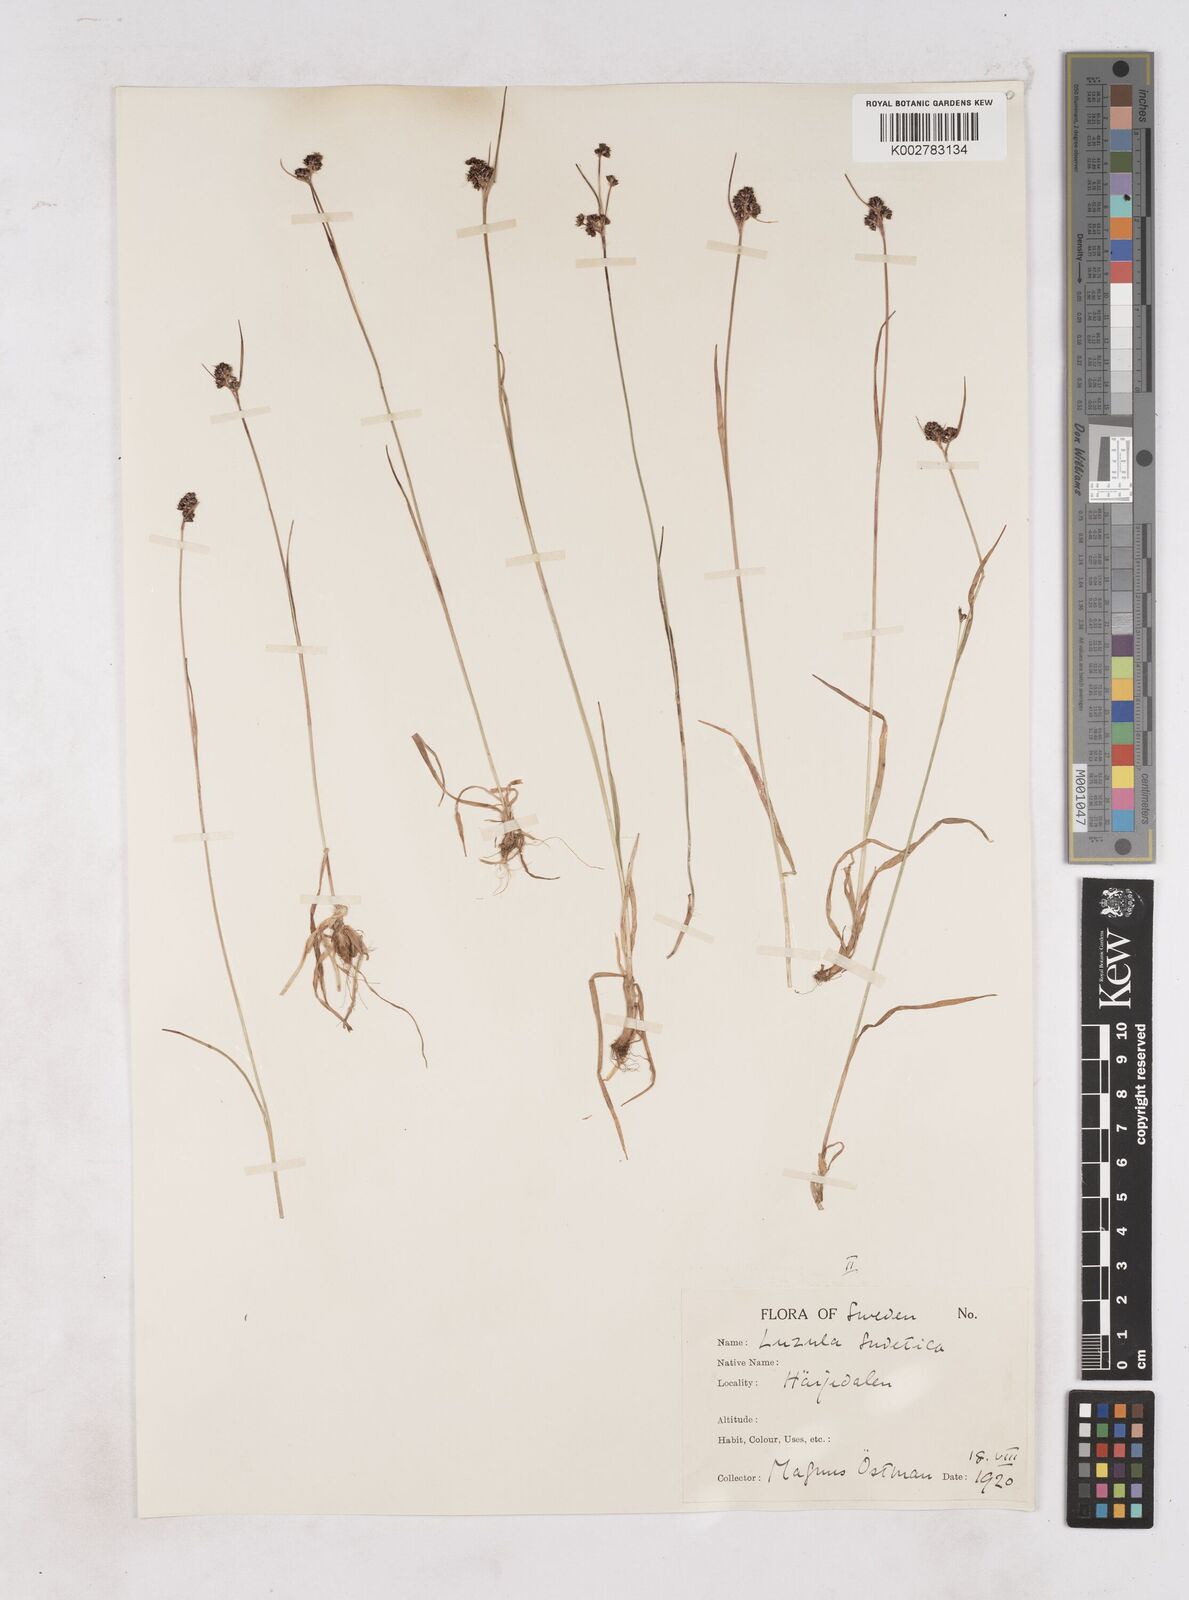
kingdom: Plantae
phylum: Tracheophyta
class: Liliopsida
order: Poales
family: Juncaceae
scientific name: Juncaceae
